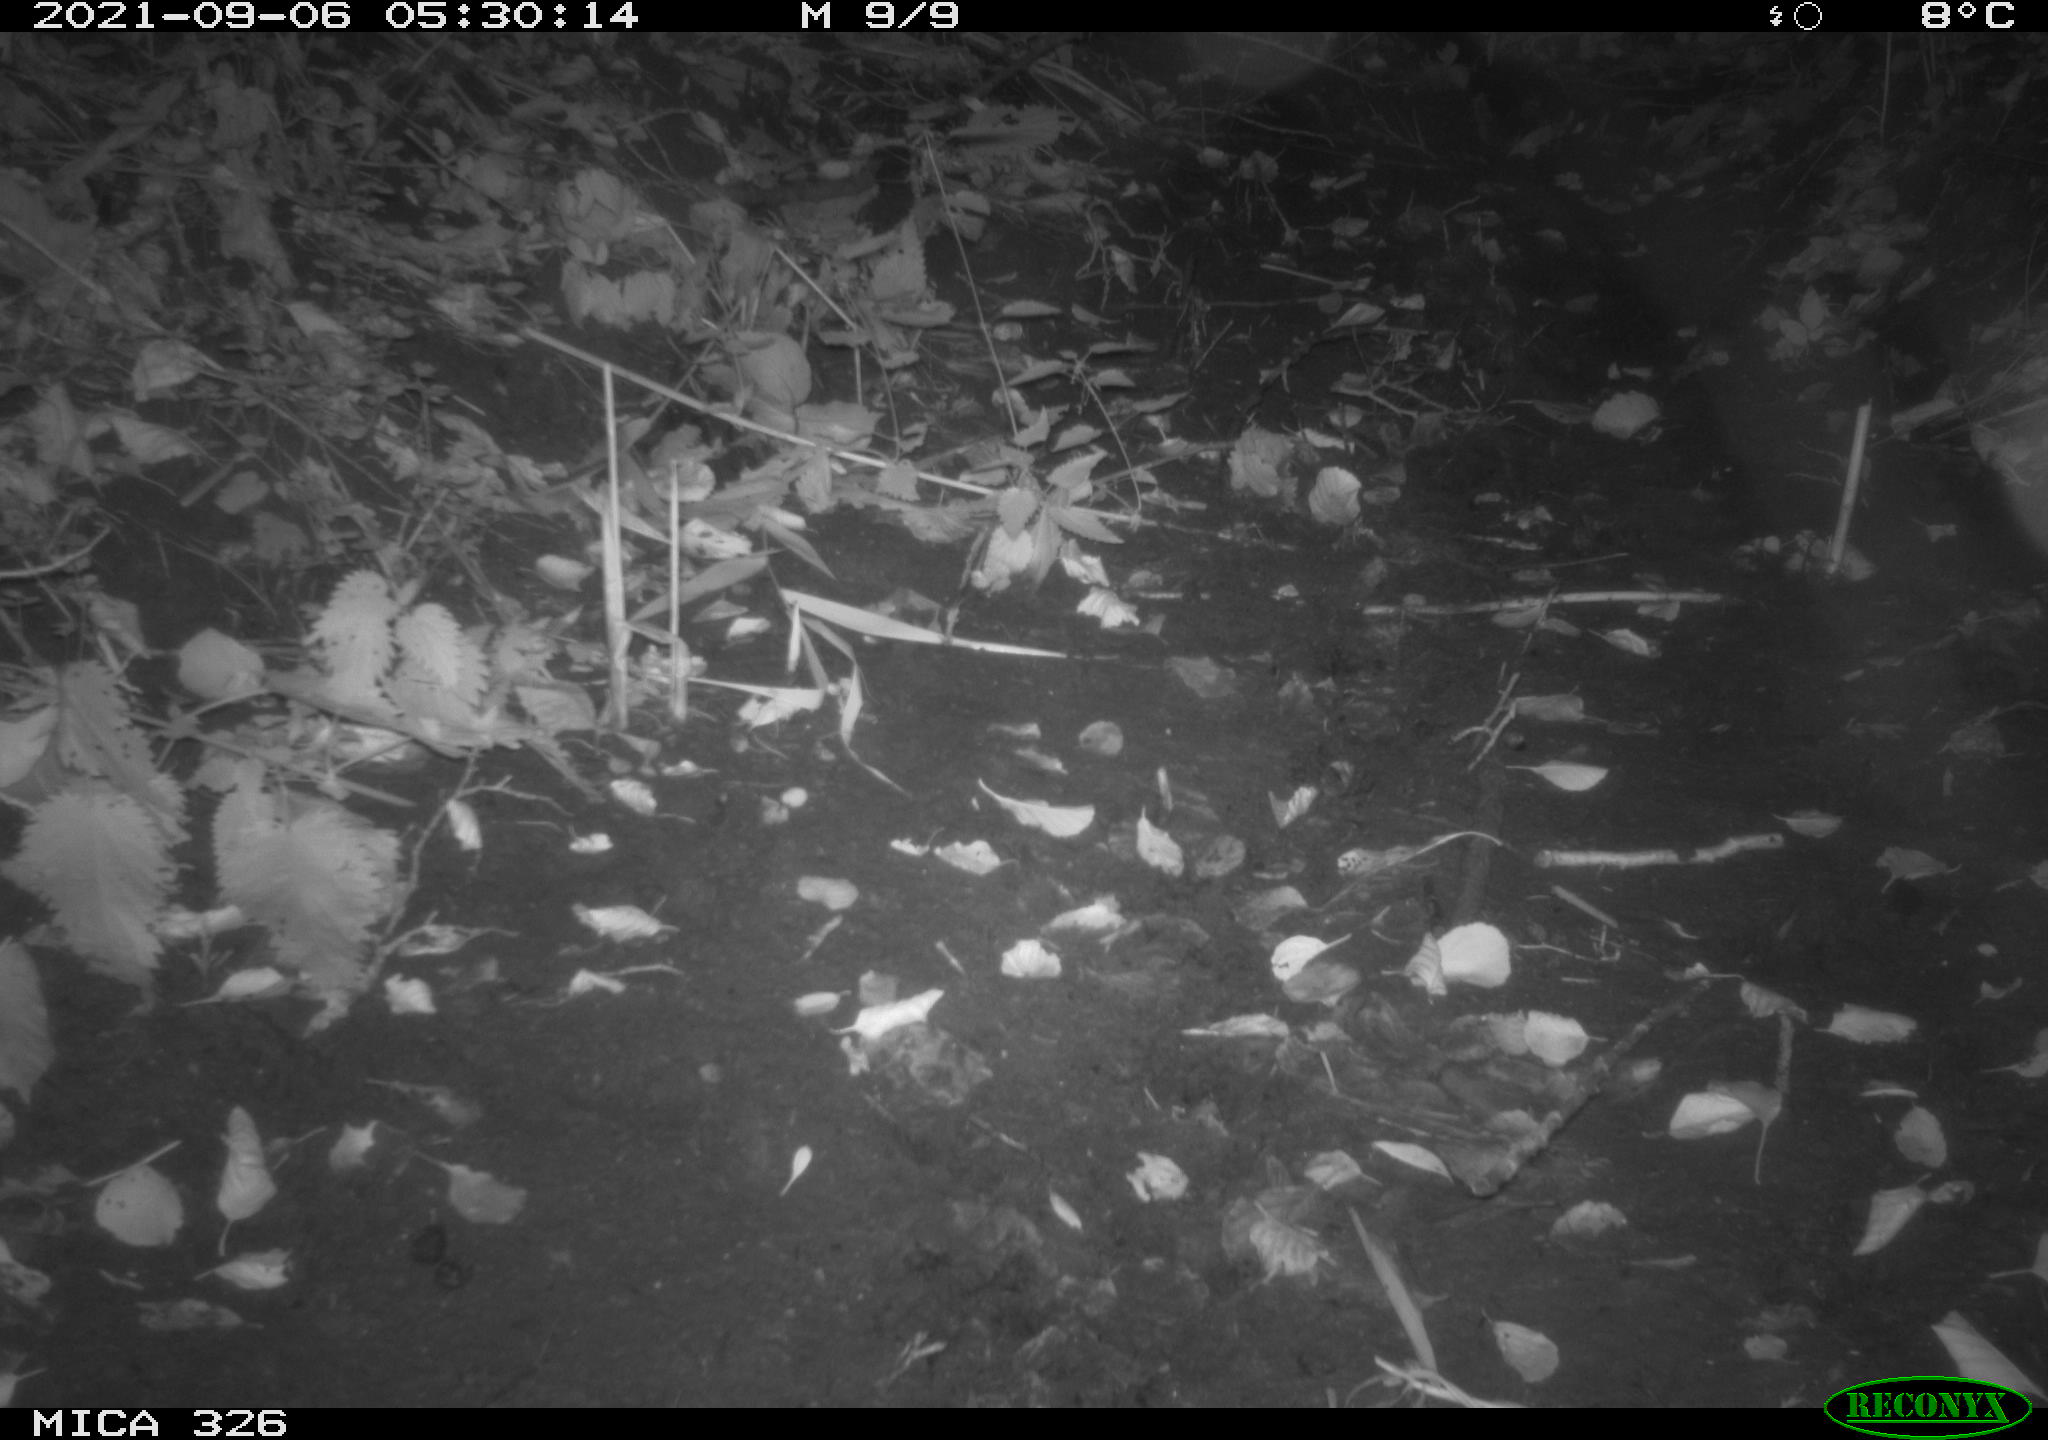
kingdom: Animalia
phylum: Chordata
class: Mammalia
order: Rodentia
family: Muridae
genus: Rattus
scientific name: Rattus norvegicus
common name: Brown rat
